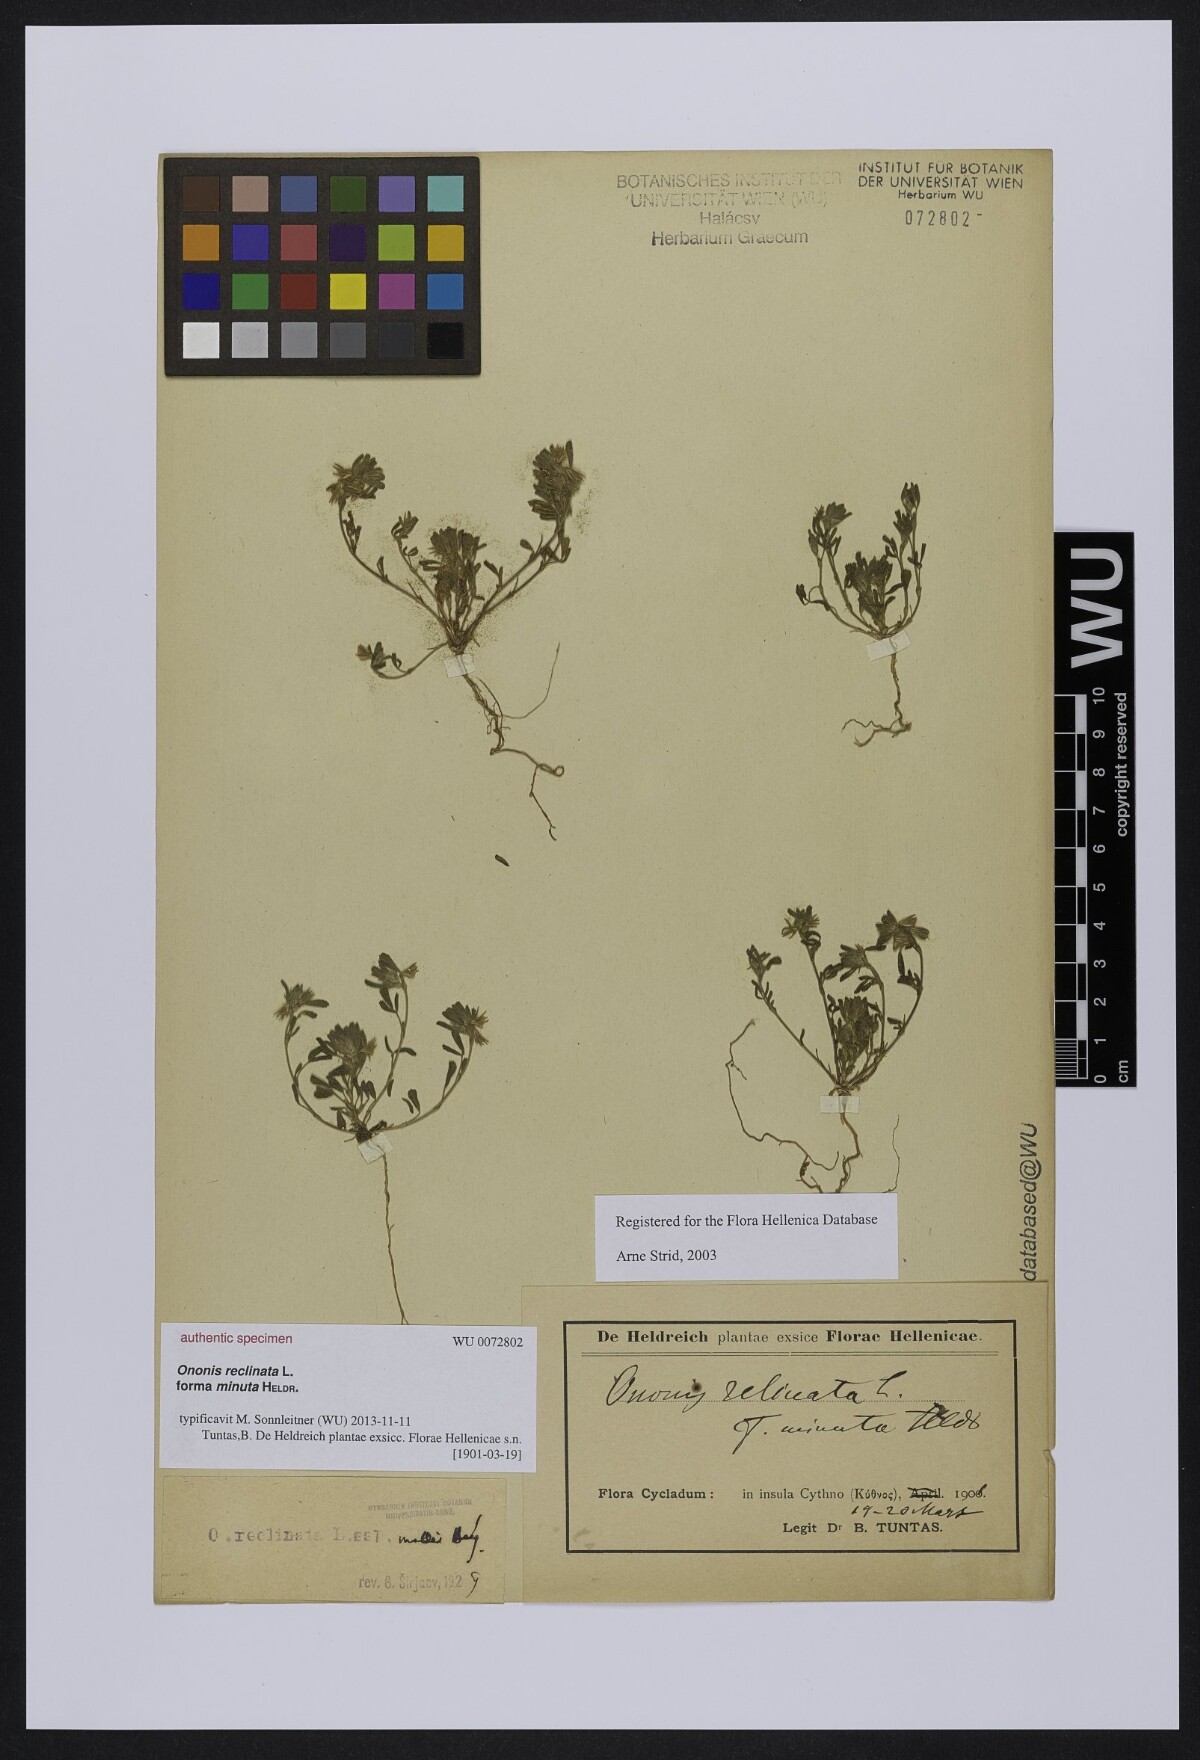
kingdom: Plantae
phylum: Tracheophyta
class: Magnoliopsida
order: Fabales
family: Fabaceae
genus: Ononis
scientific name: Ononis reclinata
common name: Small restharrow
